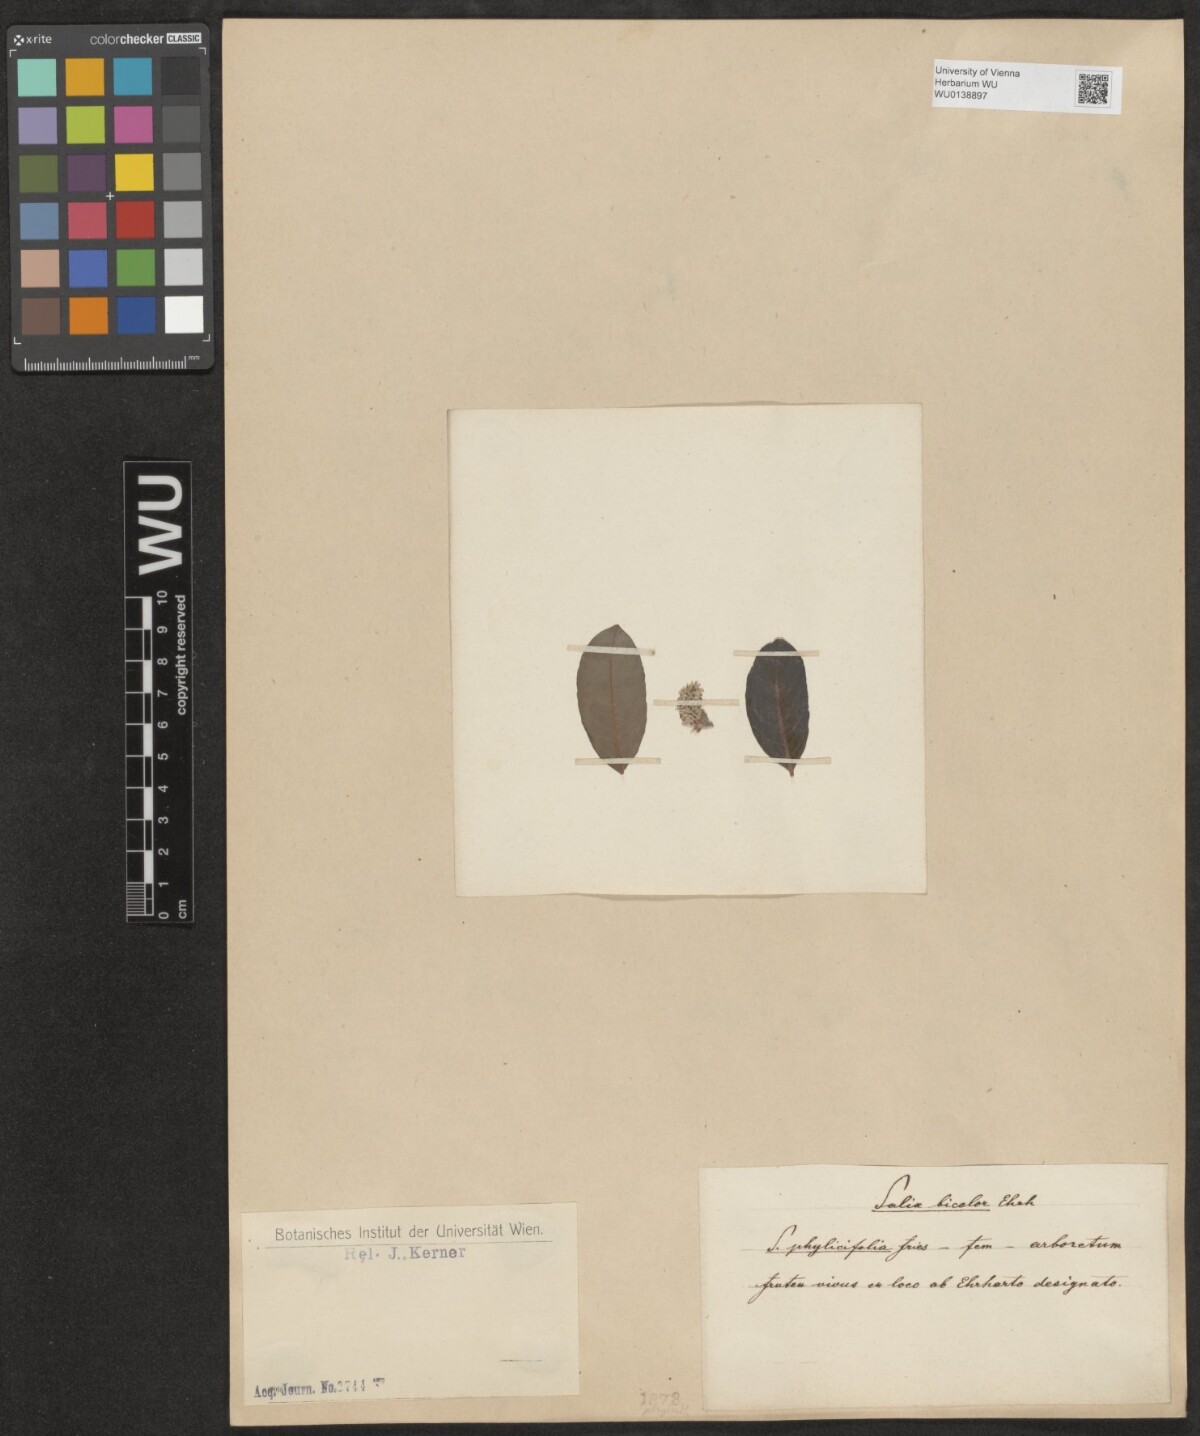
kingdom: Plantae
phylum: Tracheophyta
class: Magnoliopsida
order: Malpighiales
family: Salicaceae
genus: Salix
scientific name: Salix phylicifolia
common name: Tea-leaved willow
